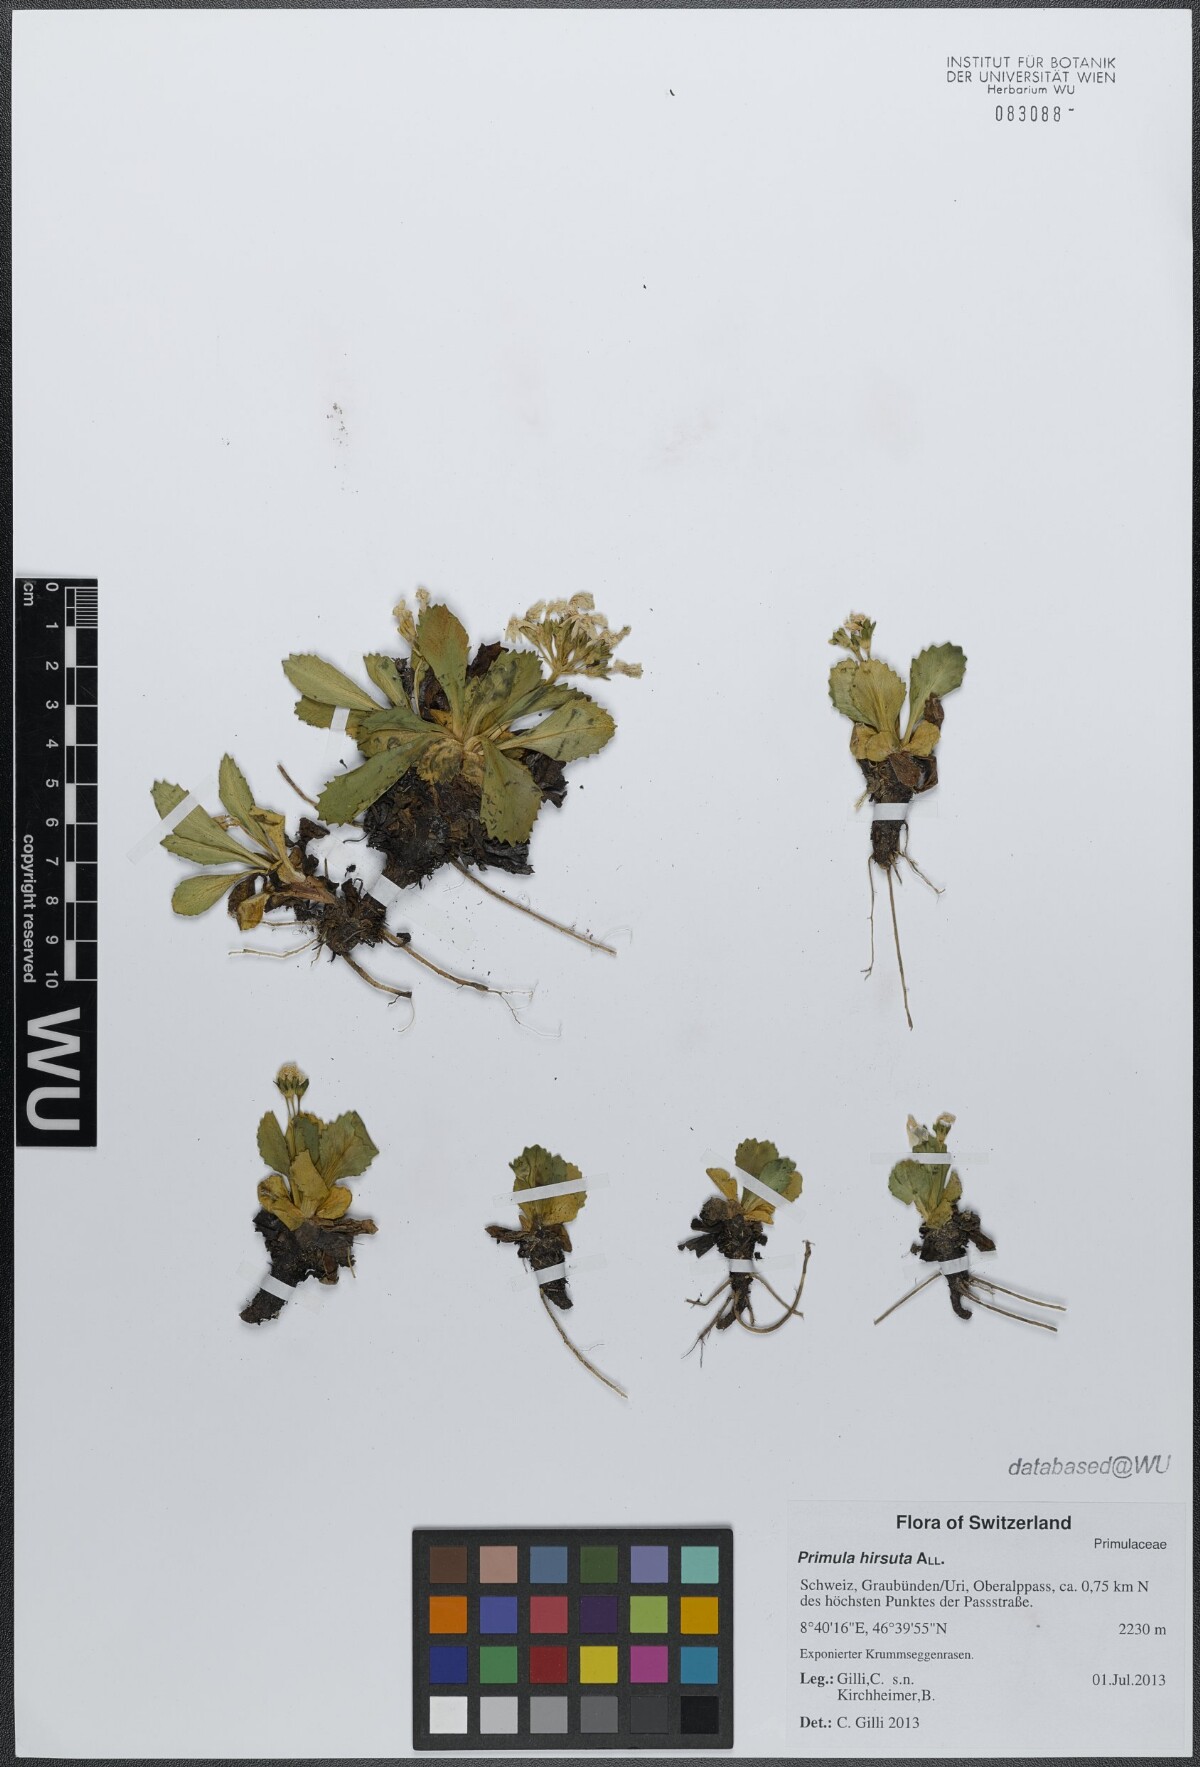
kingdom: Plantae
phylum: Tracheophyta
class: Magnoliopsida
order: Ericales
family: Primulaceae
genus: Primula
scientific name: Primula hirsuta
